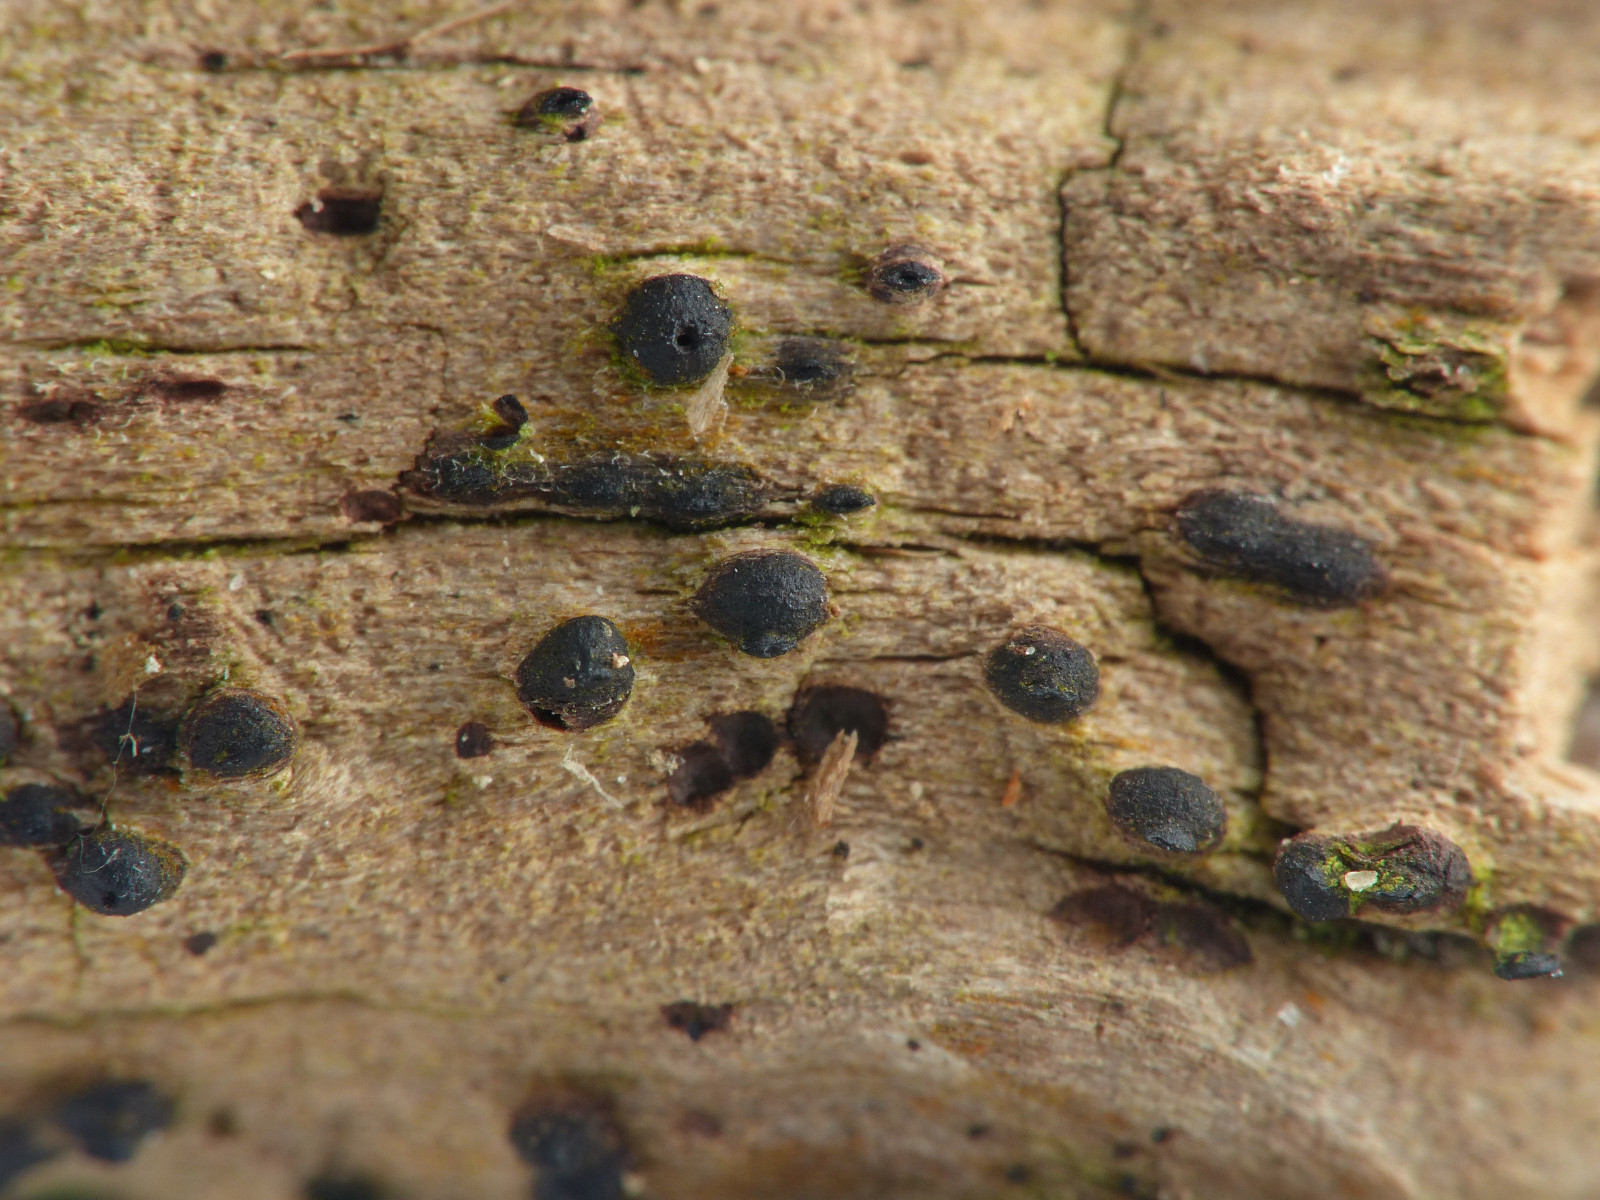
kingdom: Fungi
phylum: Ascomycota
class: Dothideomycetes
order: Pleosporales
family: Lophiostomataceae
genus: Lophiostoma
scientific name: Lophiostoma compressum
